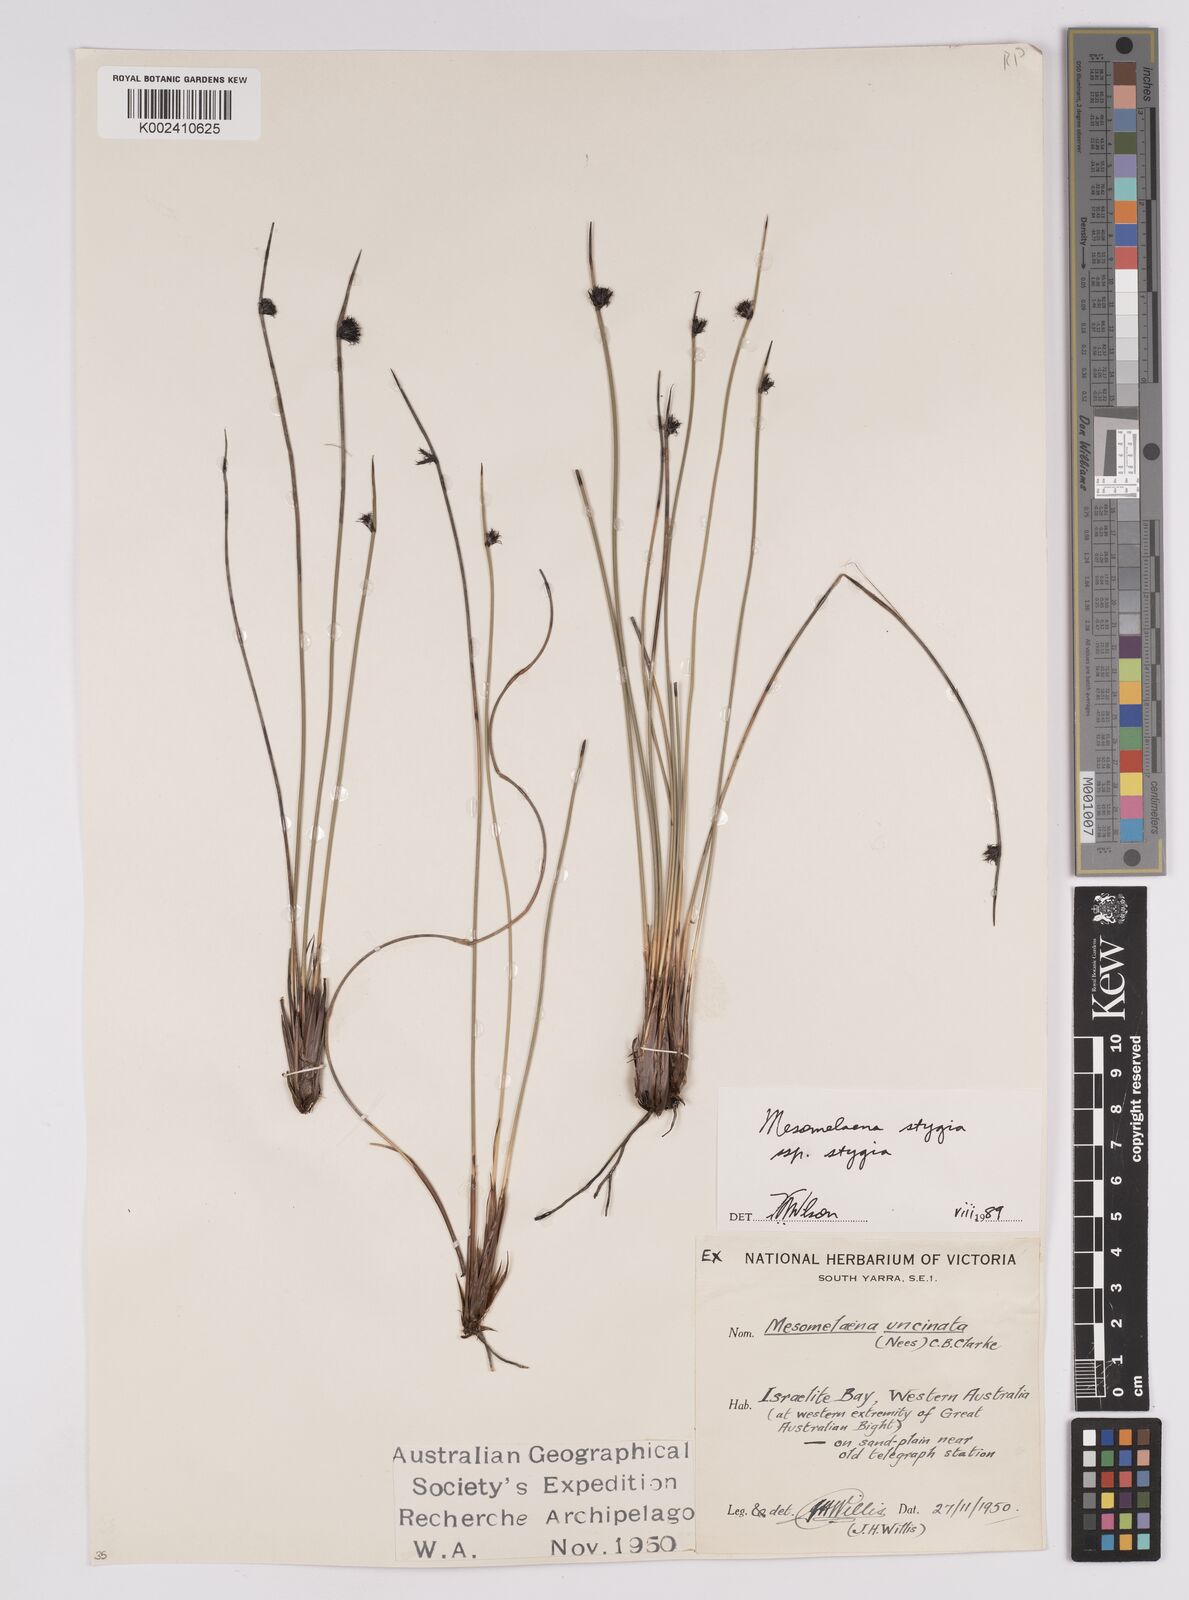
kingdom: Plantae
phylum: Tracheophyta
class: Liliopsida
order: Poales
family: Cyperaceae
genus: Mesomelaena
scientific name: Mesomelaena stygia
